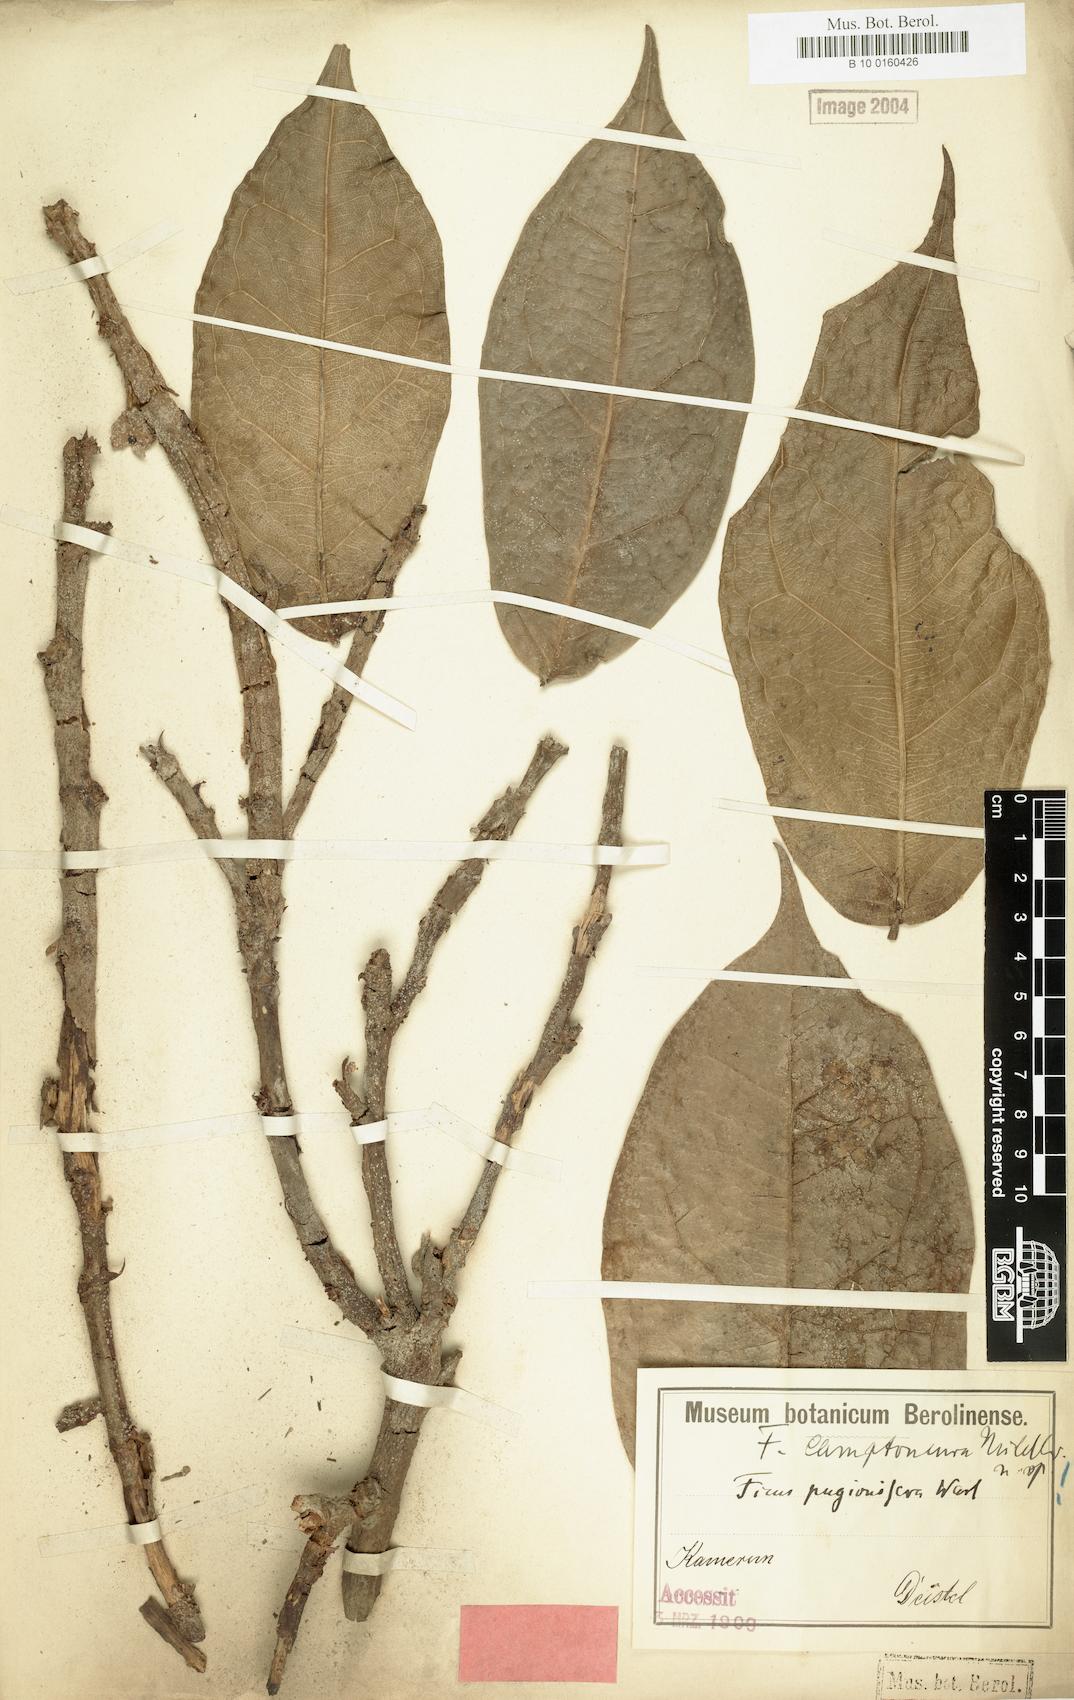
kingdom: Plantae
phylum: Tracheophyta
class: Magnoliopsida
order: Rosales
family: Moraceae
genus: Ficus
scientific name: Ficus ardisioides
